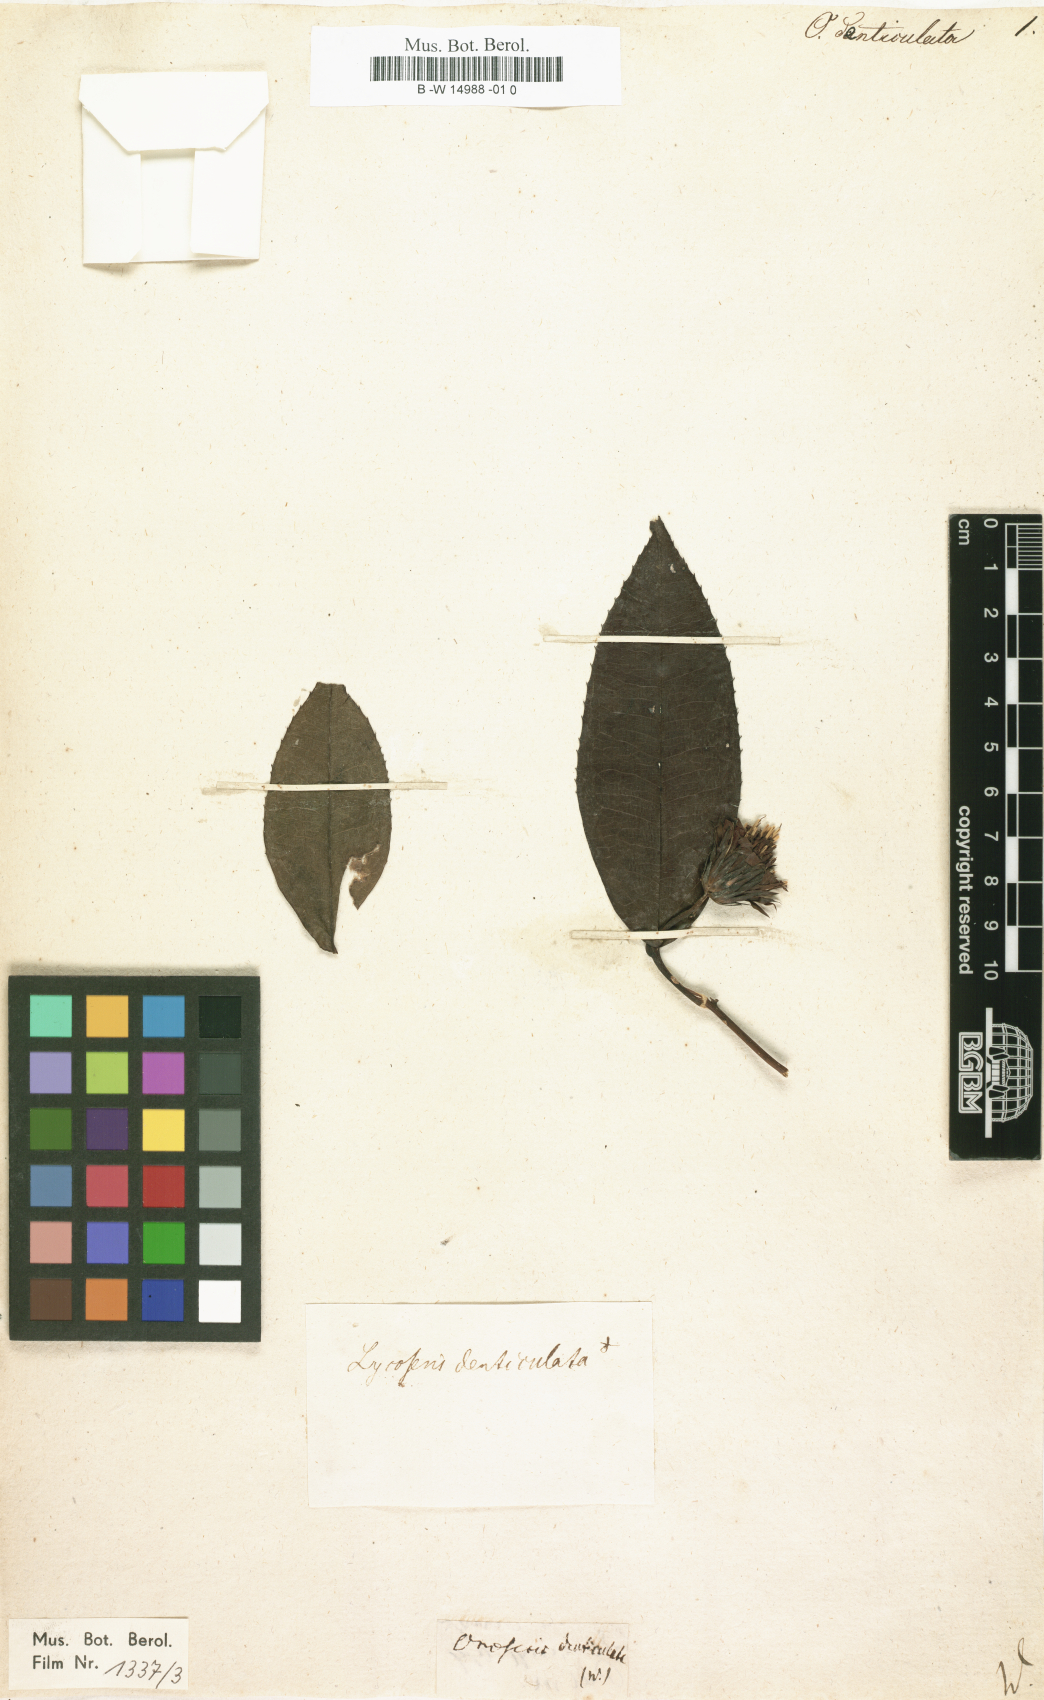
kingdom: Plantae
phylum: Tracheophyta
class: Magnoliopsida
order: Asterales
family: Asteraceae
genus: Quechualia
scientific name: Quechualia fulta
